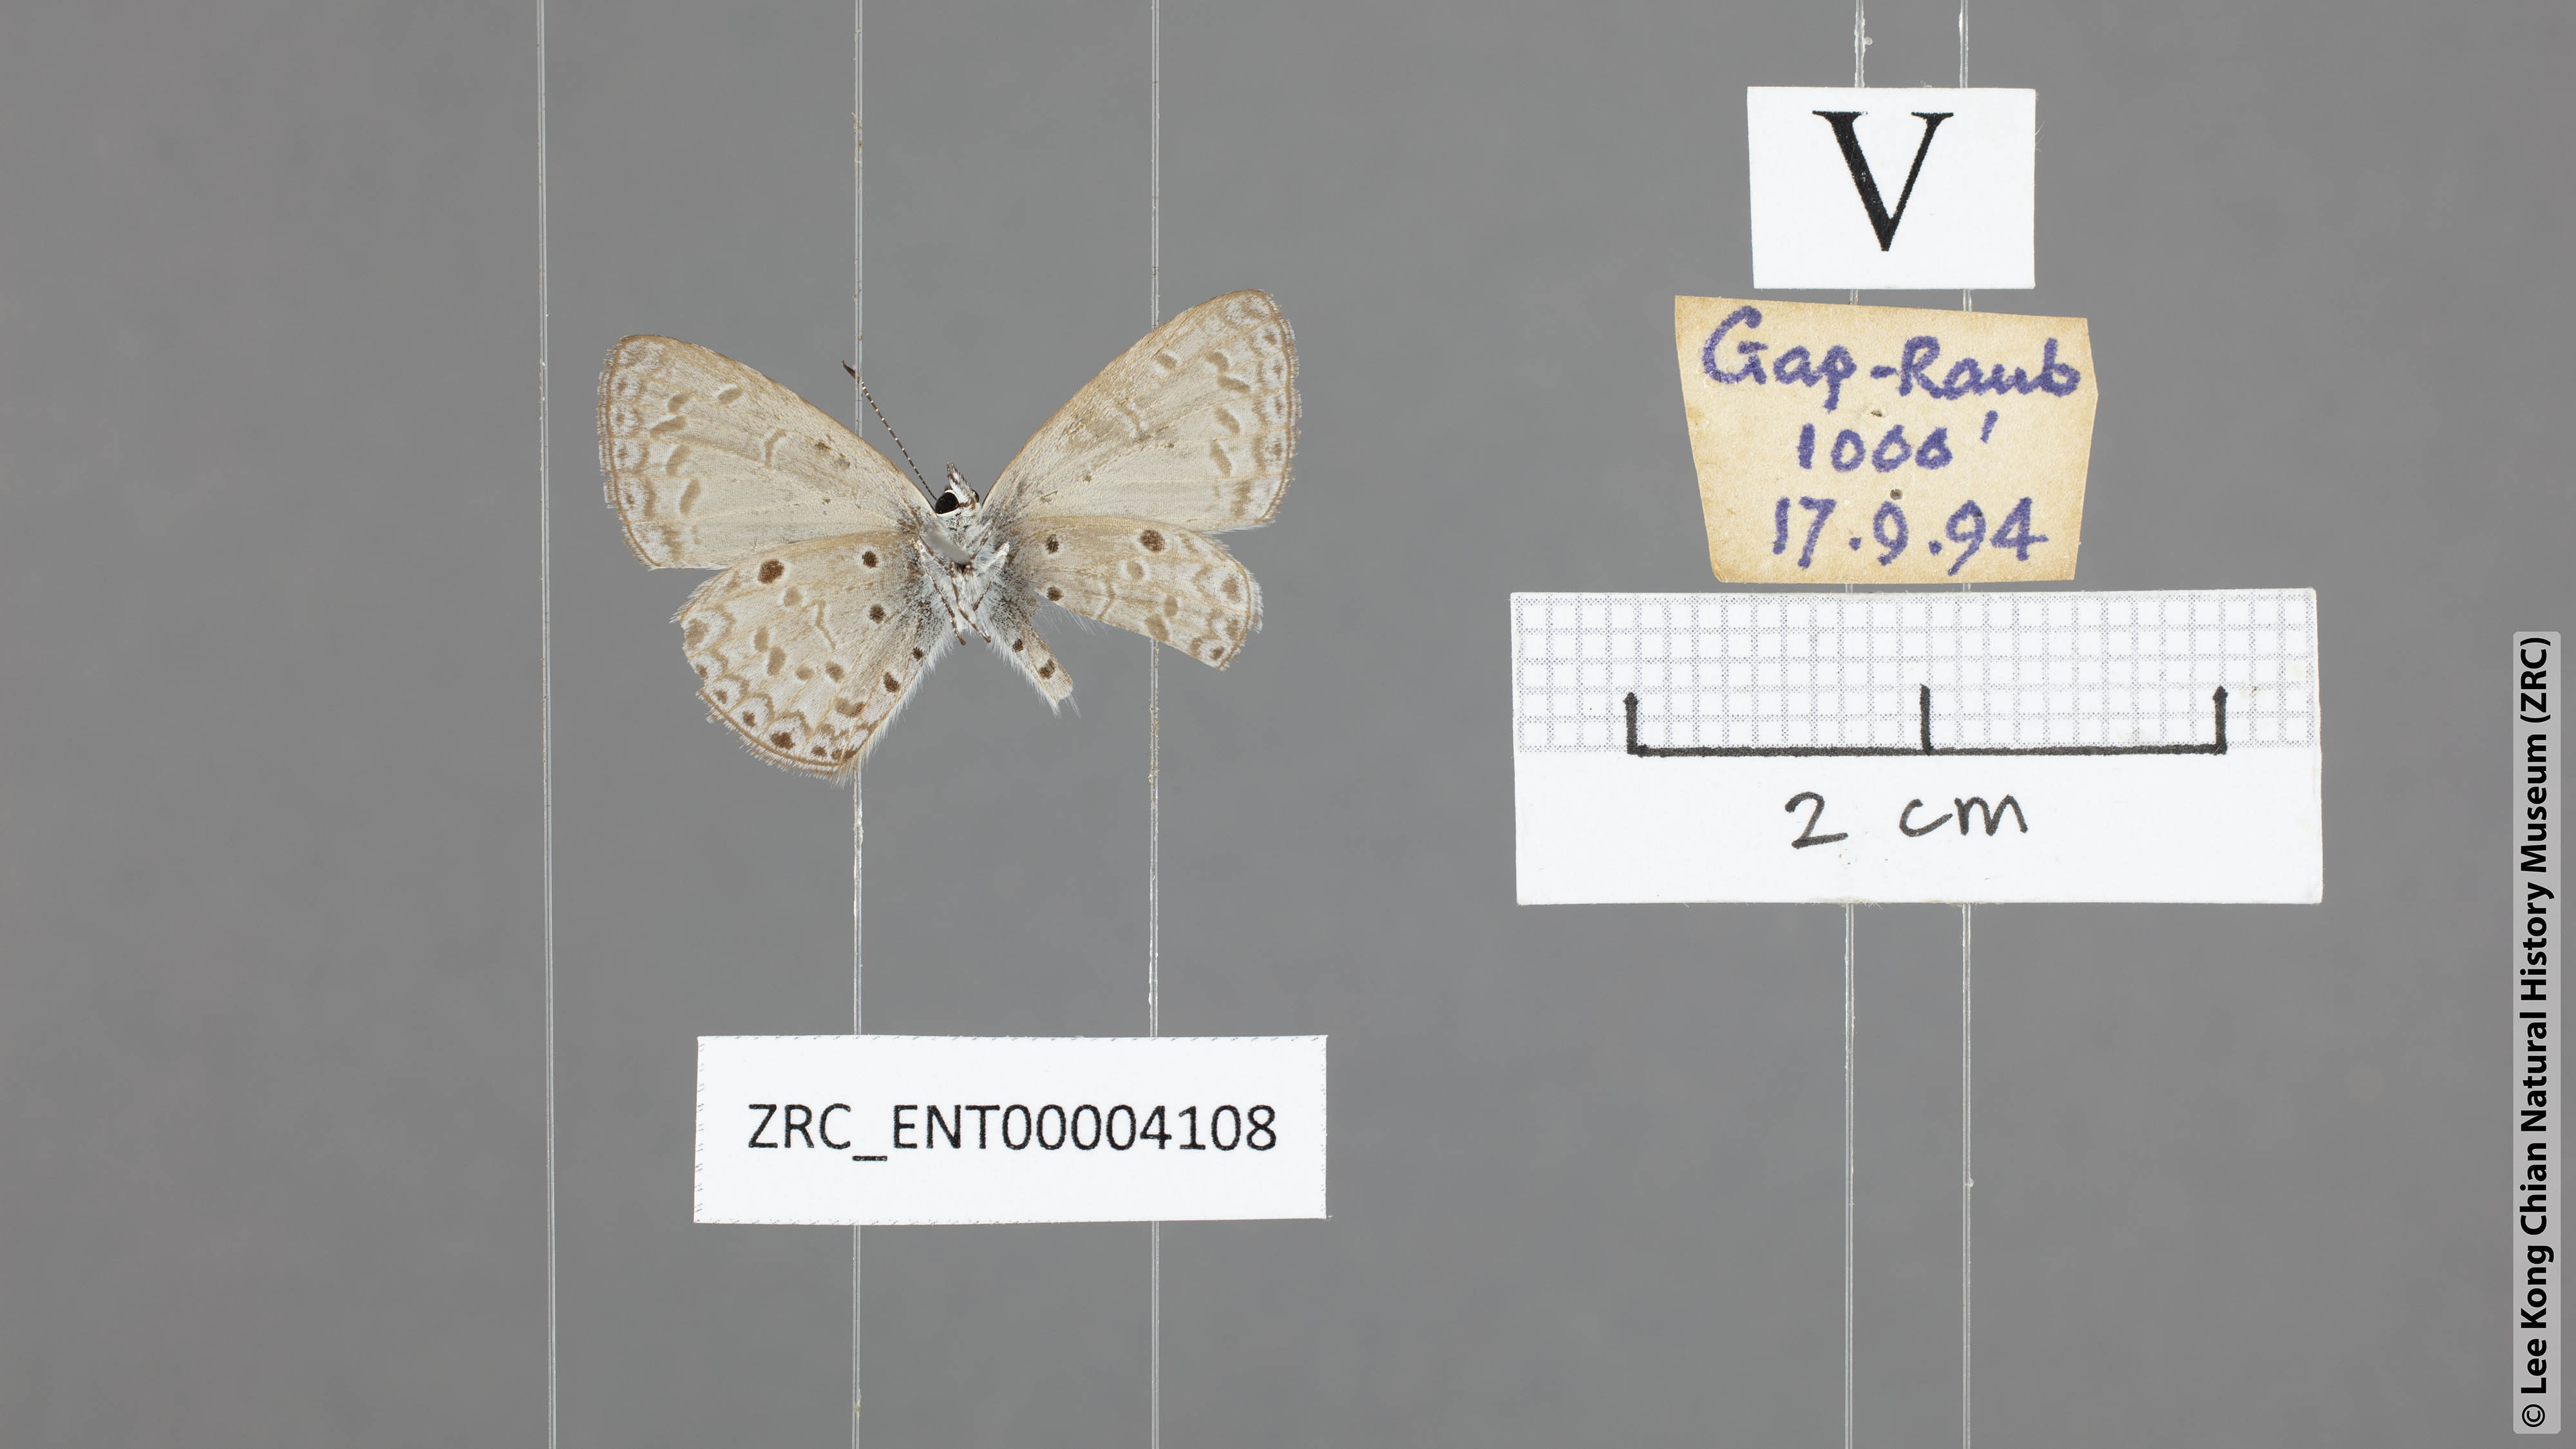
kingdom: Animalia
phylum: Arthropoda
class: Insecta
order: Lepidoptera
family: Lycaenidae
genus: Callenya
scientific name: Callenya lenya
